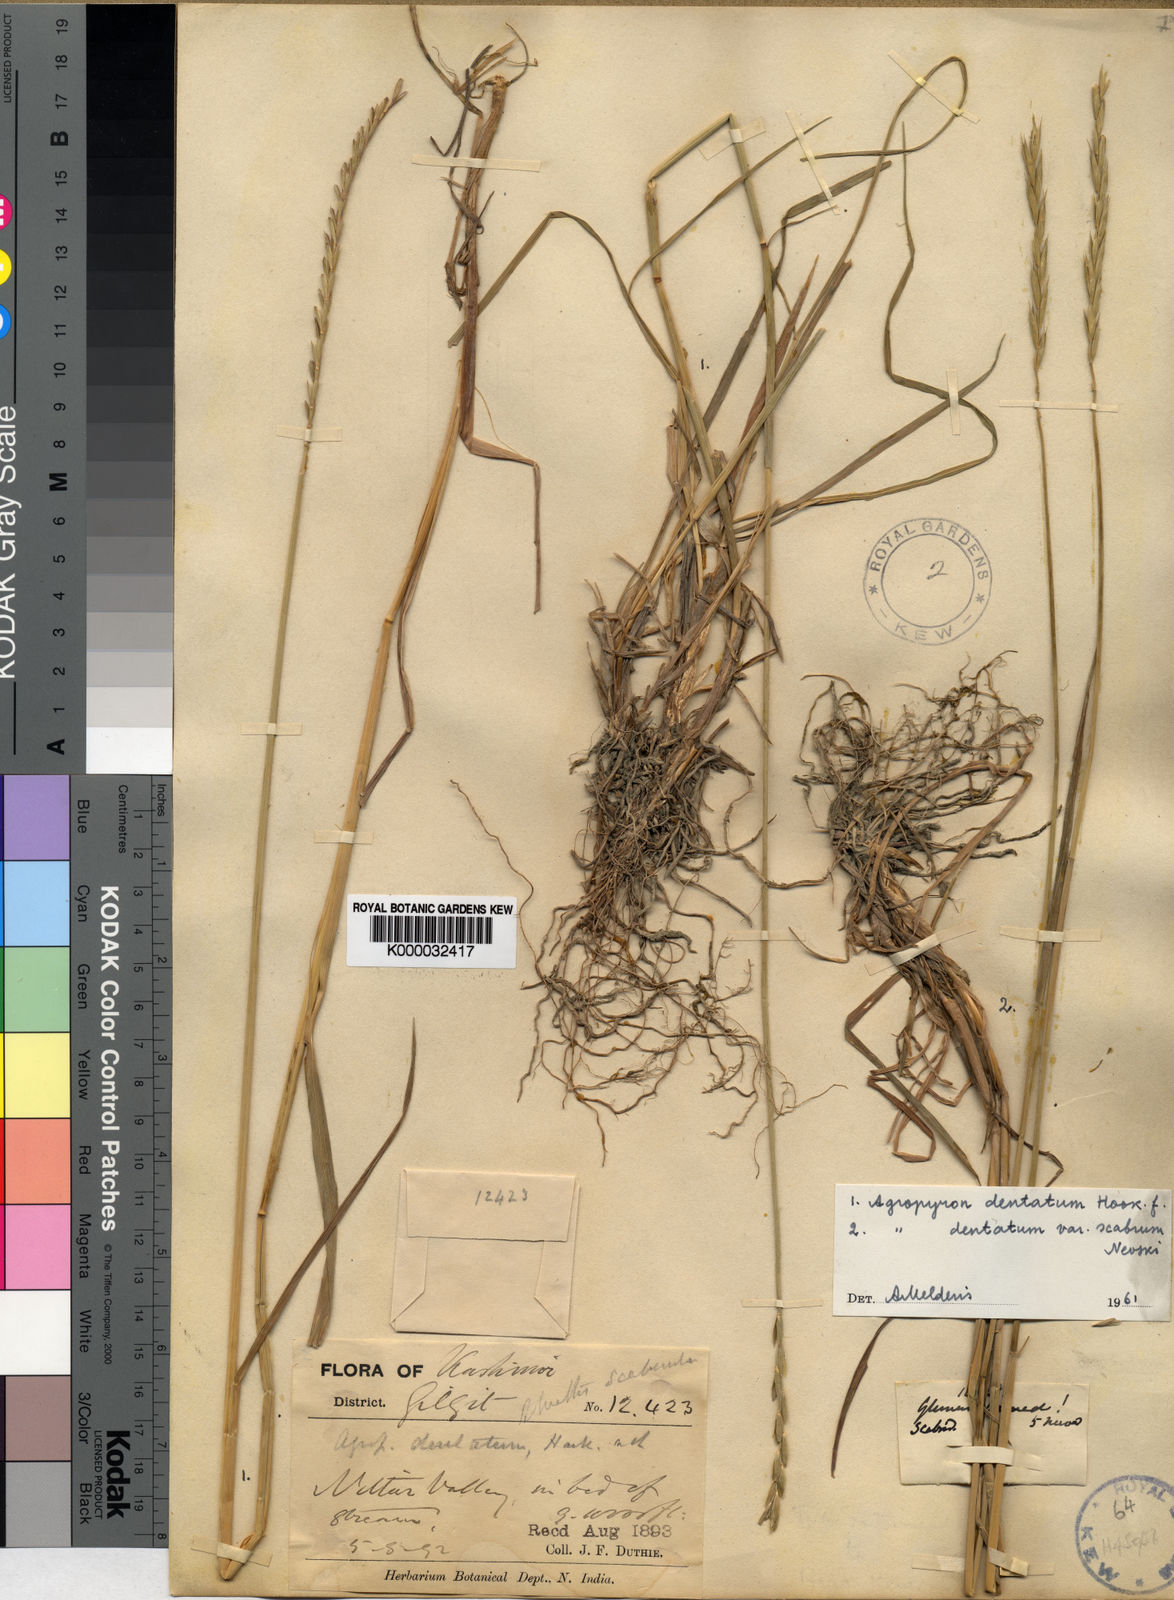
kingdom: Plantae
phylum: Tracheophyta
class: Liliopsida
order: Poales
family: Poaceae
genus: Elymus
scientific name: Elymus
